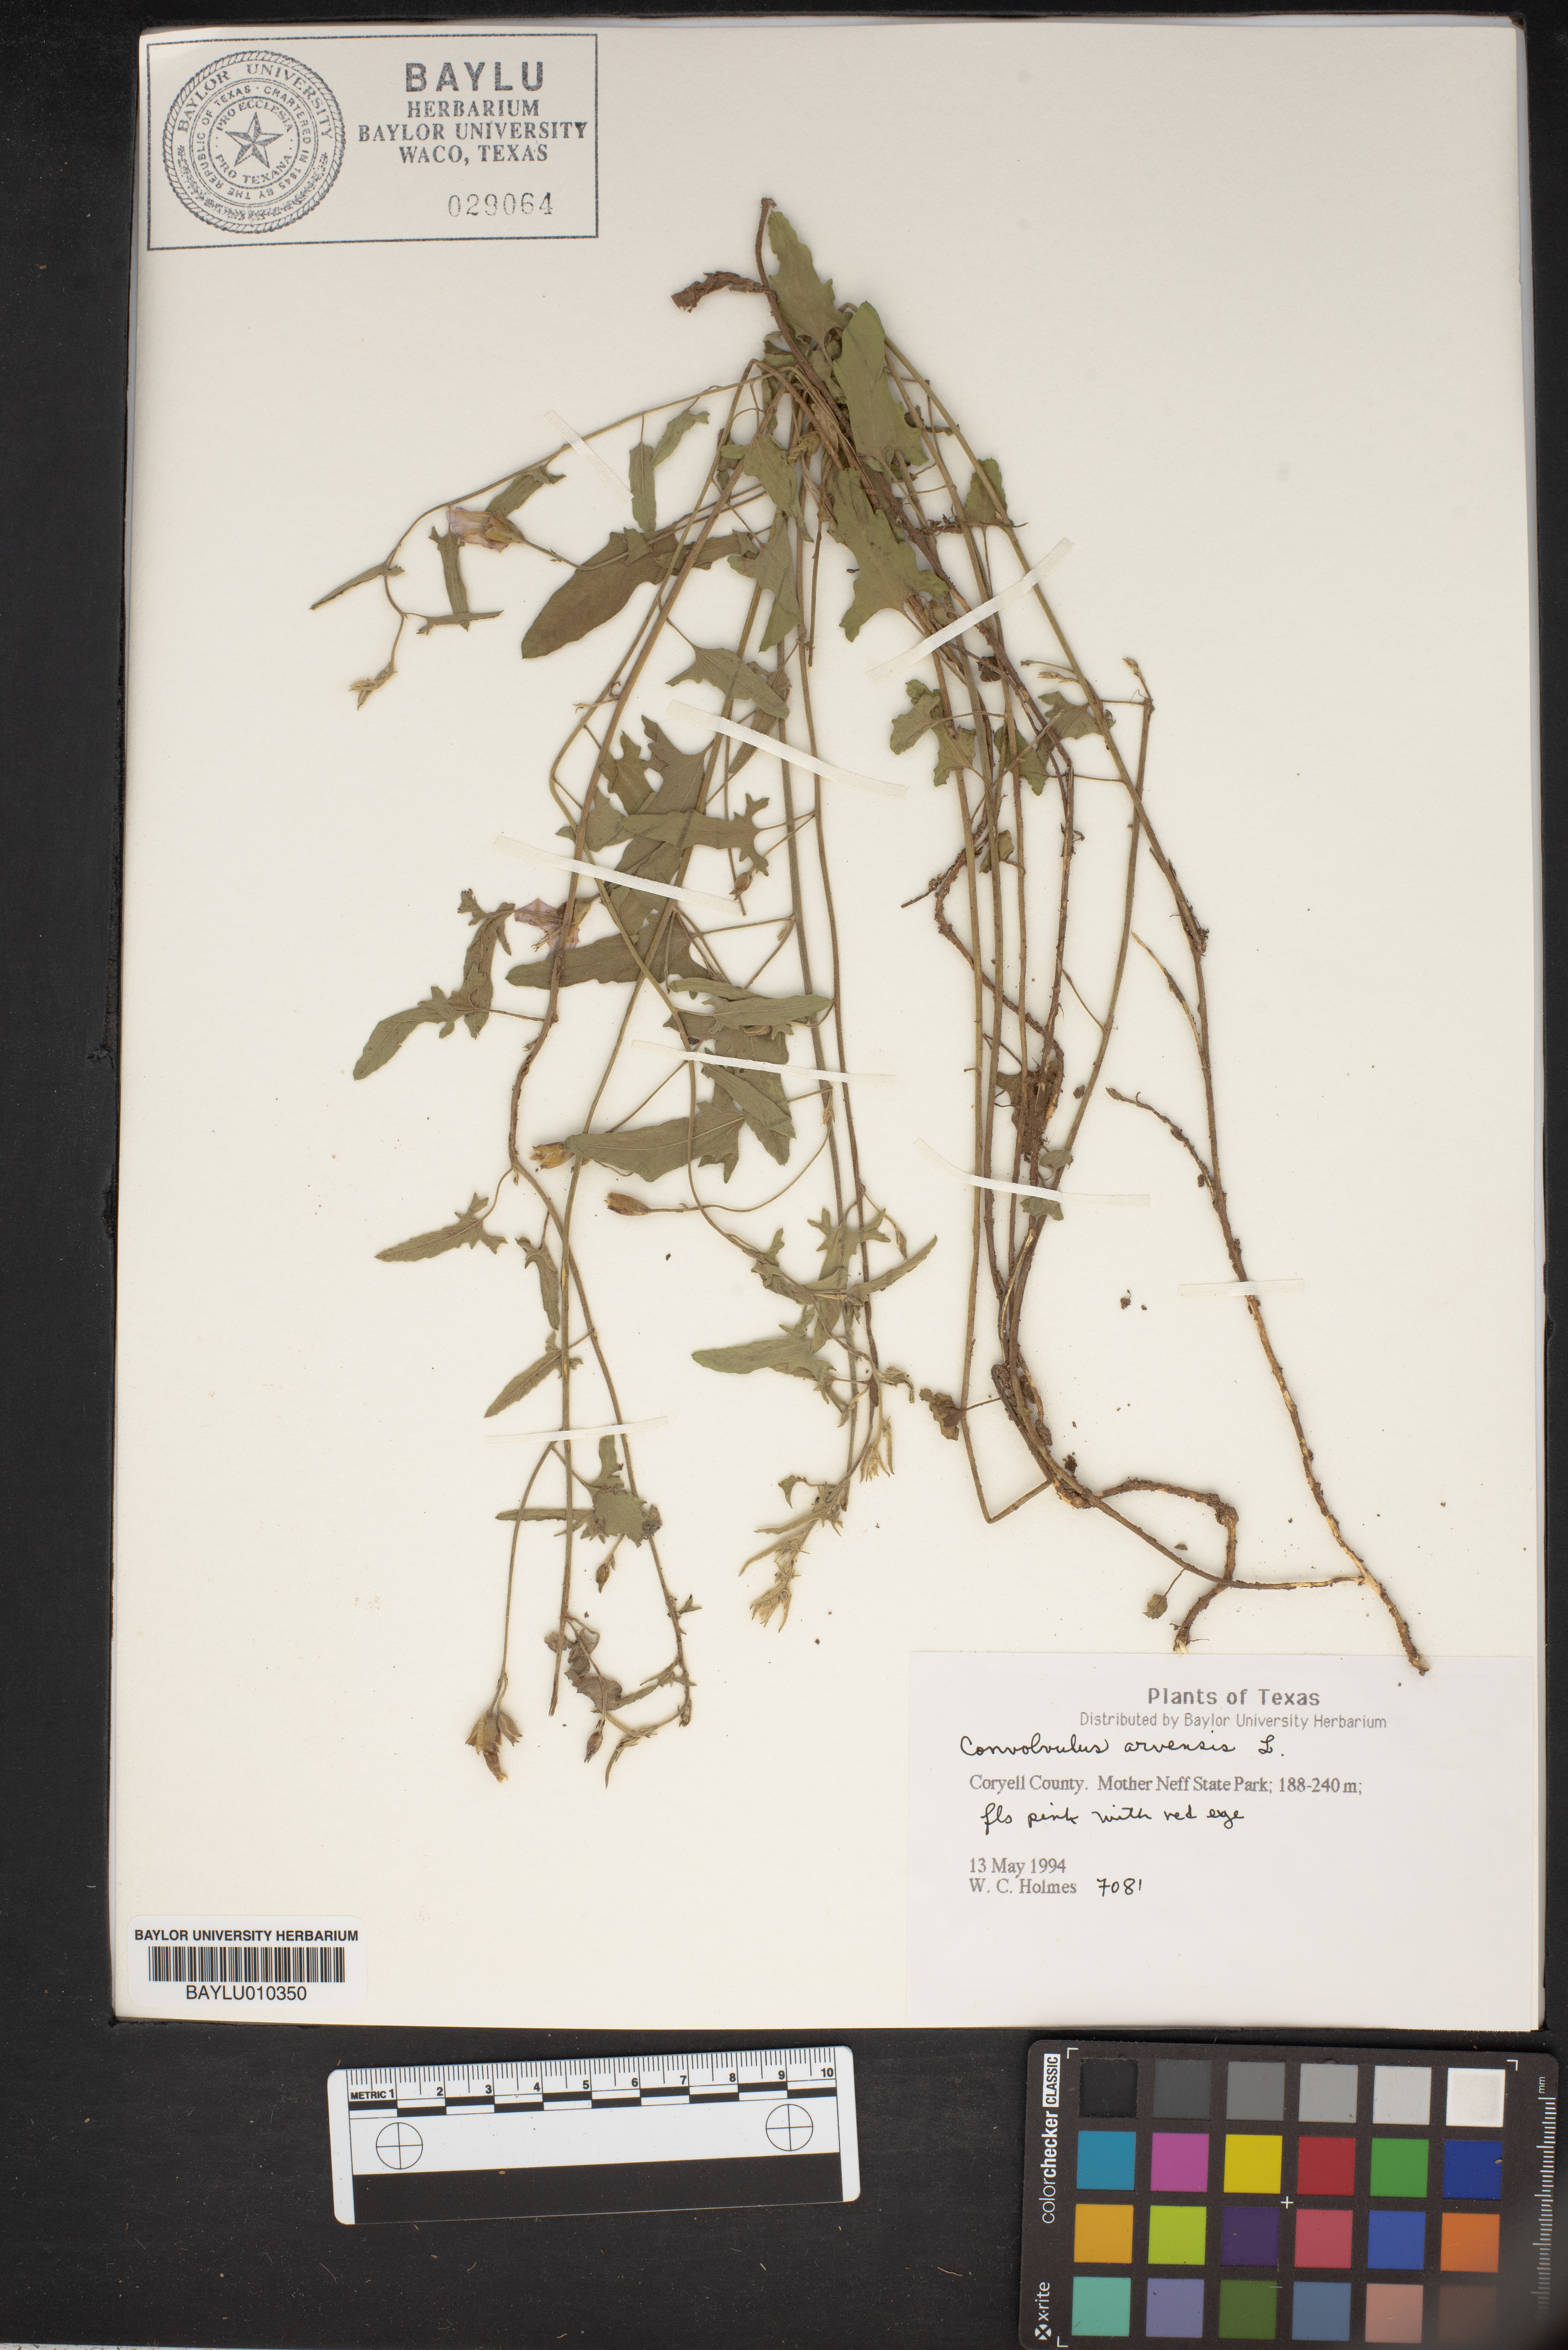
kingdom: Plantae
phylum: Tracheophyta
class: Magnoliopsida
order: Solanales
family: Convolvulaceae
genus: Convolvulus
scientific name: Convolvulus arvensis
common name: Field bindweed
